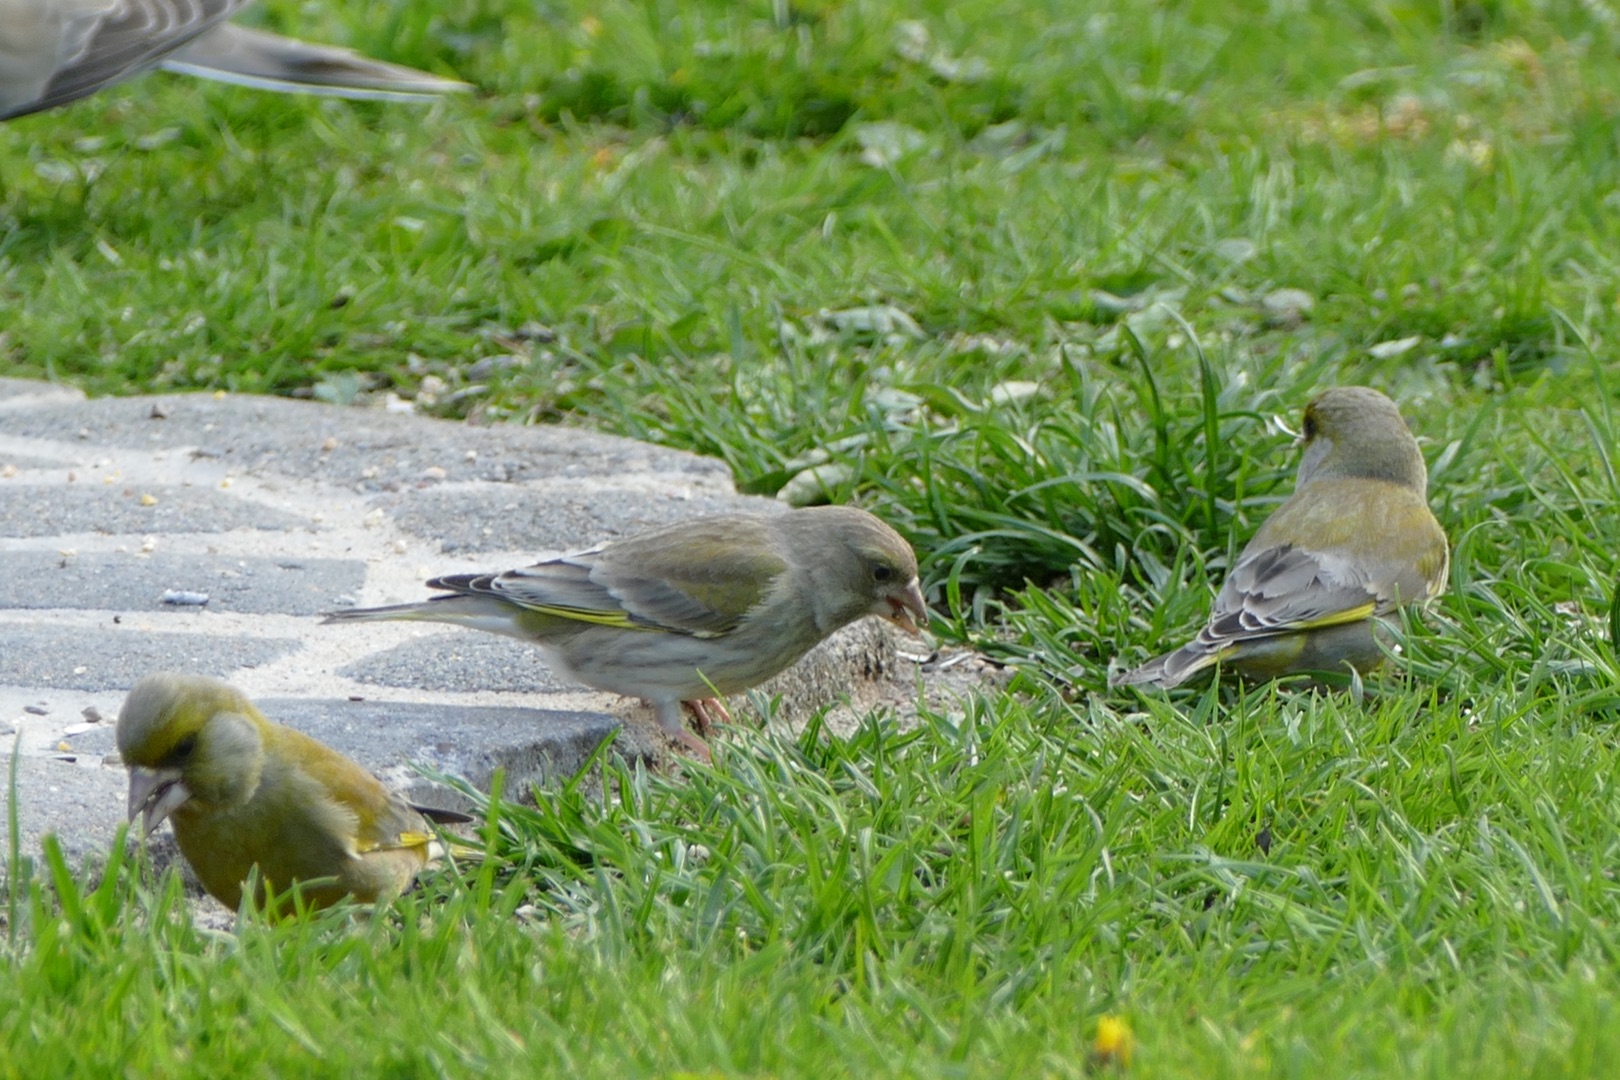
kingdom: Plantae
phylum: Tracheophyta
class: Liliopsida
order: Poales
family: Poaceae
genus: Chloris
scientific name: Chloris chloris
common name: Grønirisk
